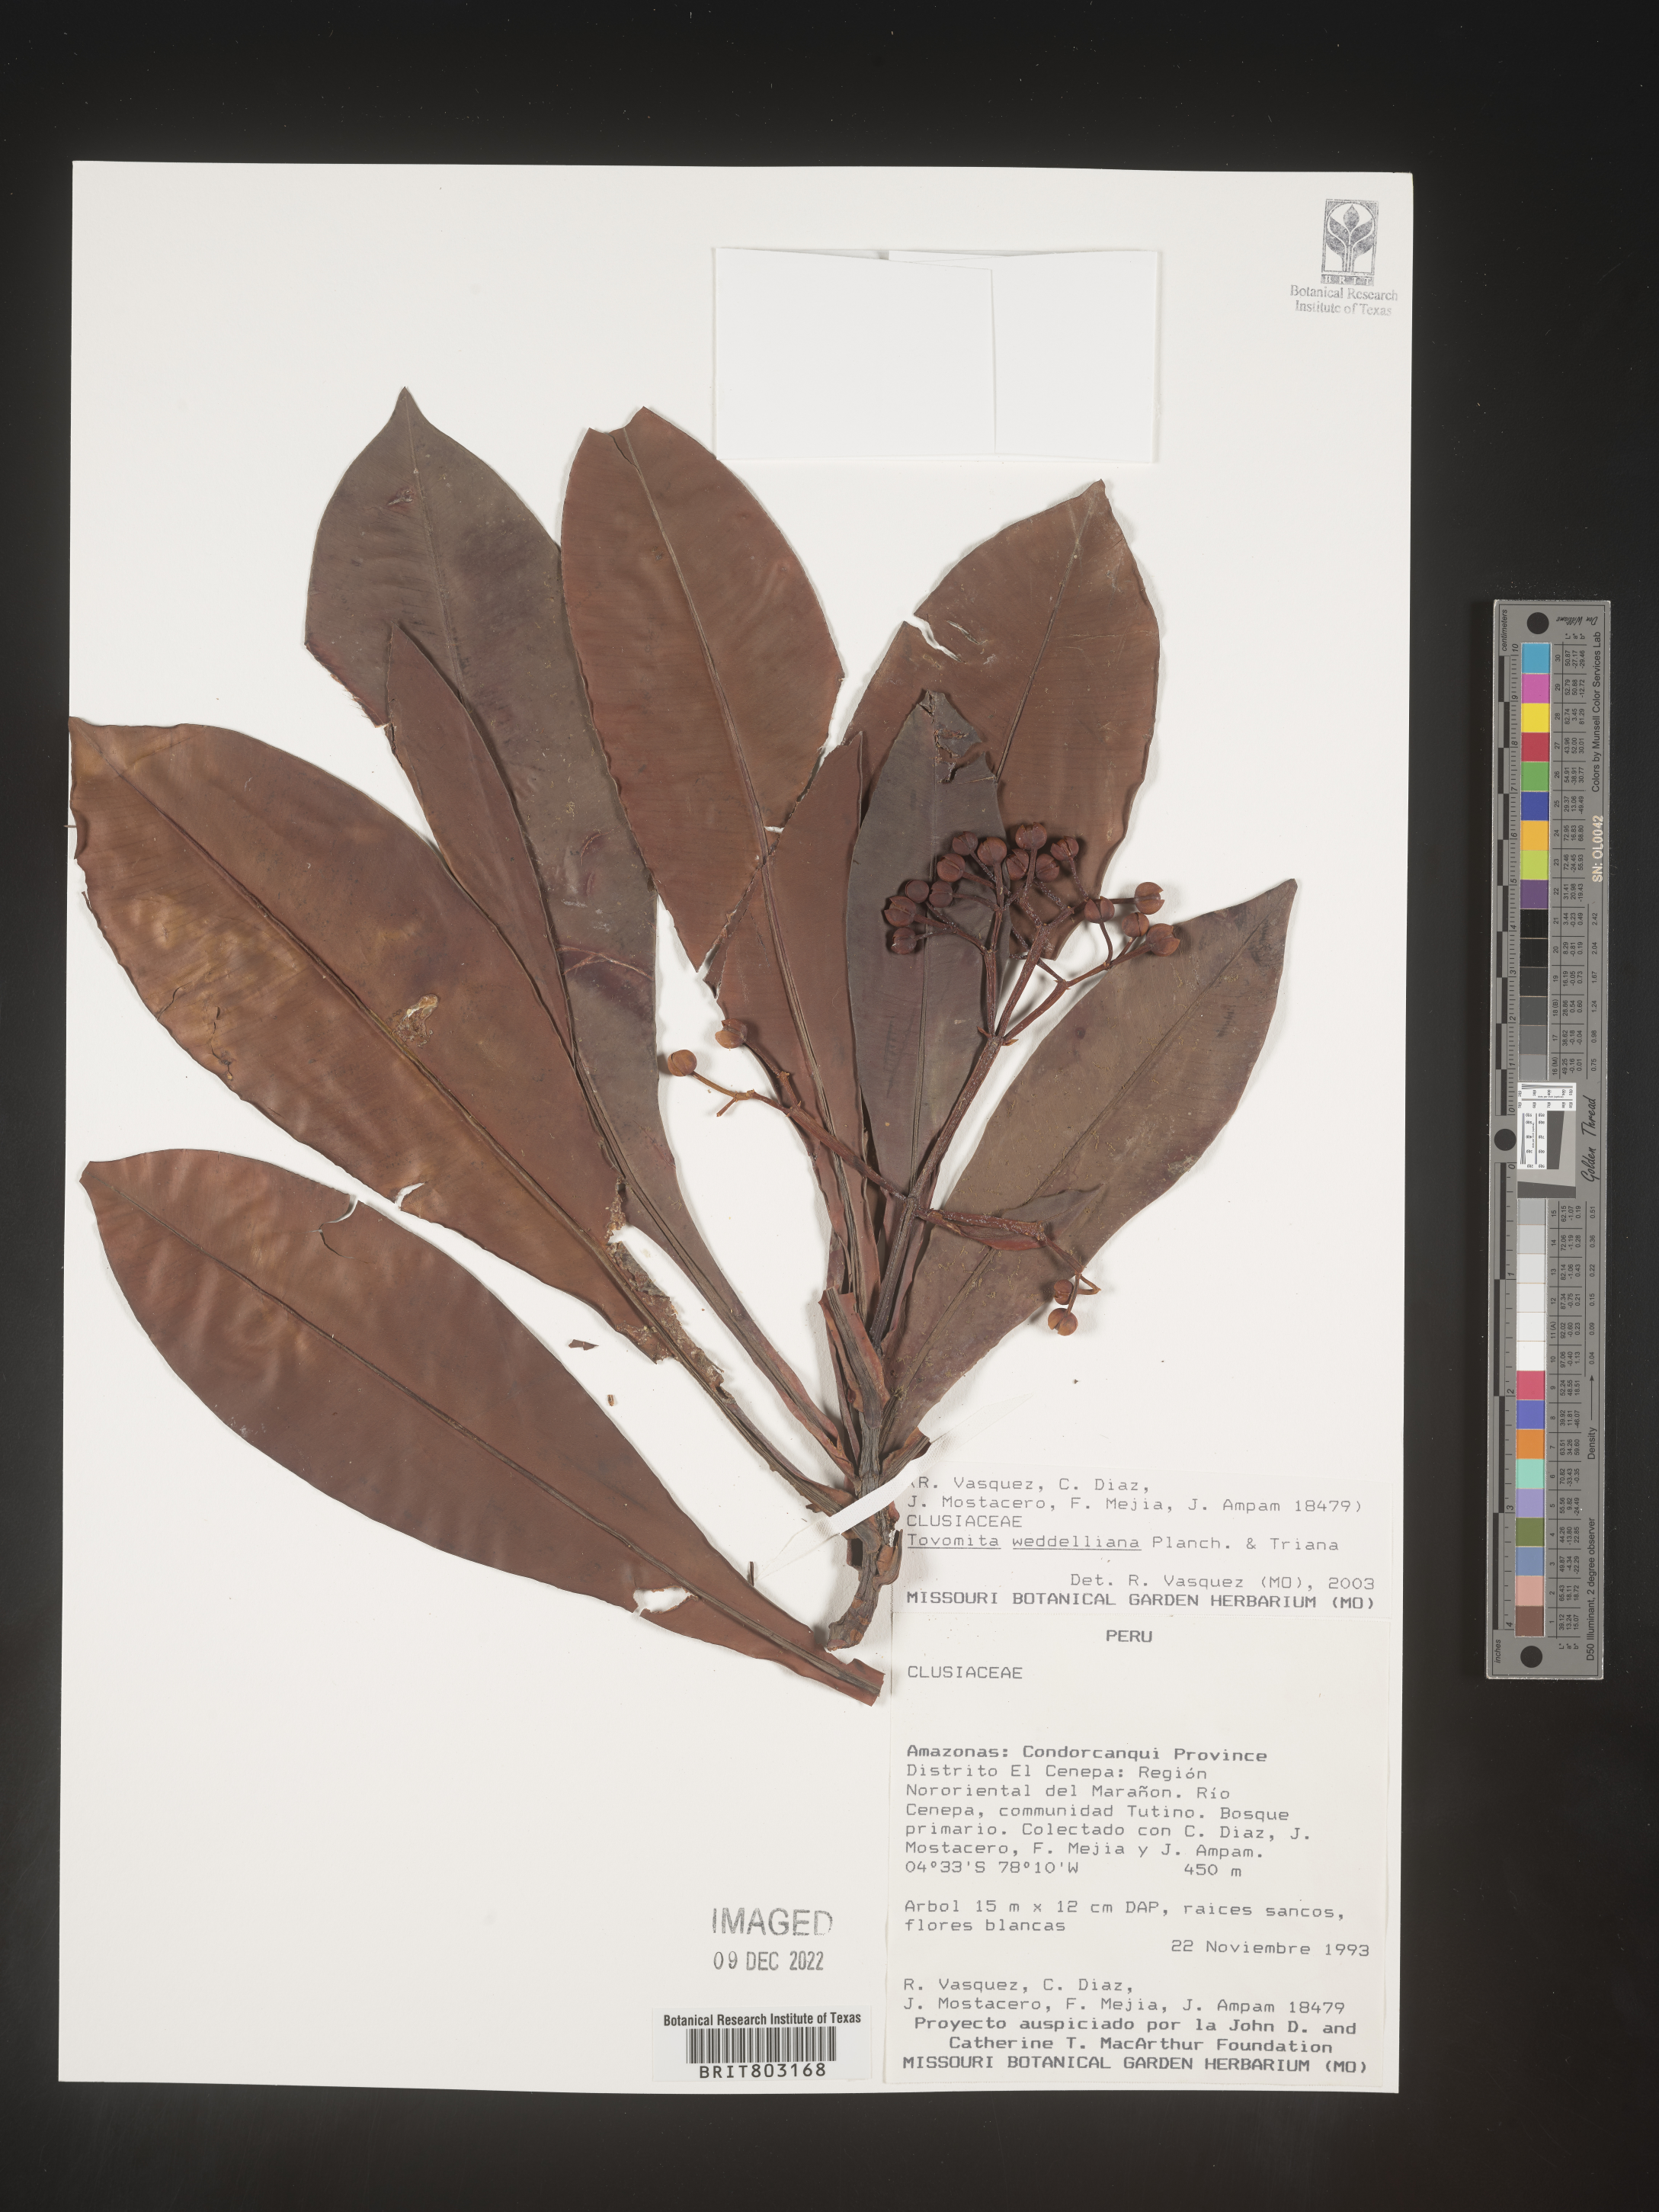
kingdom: Plantae
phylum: Tracheophyta
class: Magnoliopsida
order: Malpighiales
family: Clusiaceae
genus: Arawakia
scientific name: Arawakia weddelliana
